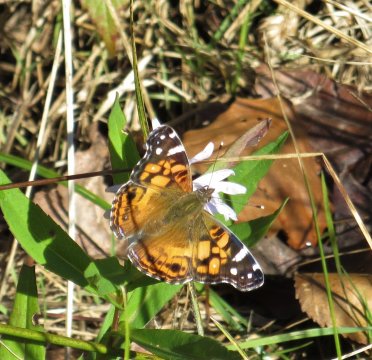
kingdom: Animalia
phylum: Arthropoda
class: Insecta
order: Lepidoptera
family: Nymphalidae
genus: Vanessa
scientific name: Vanessa virginiensis
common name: American Lady
